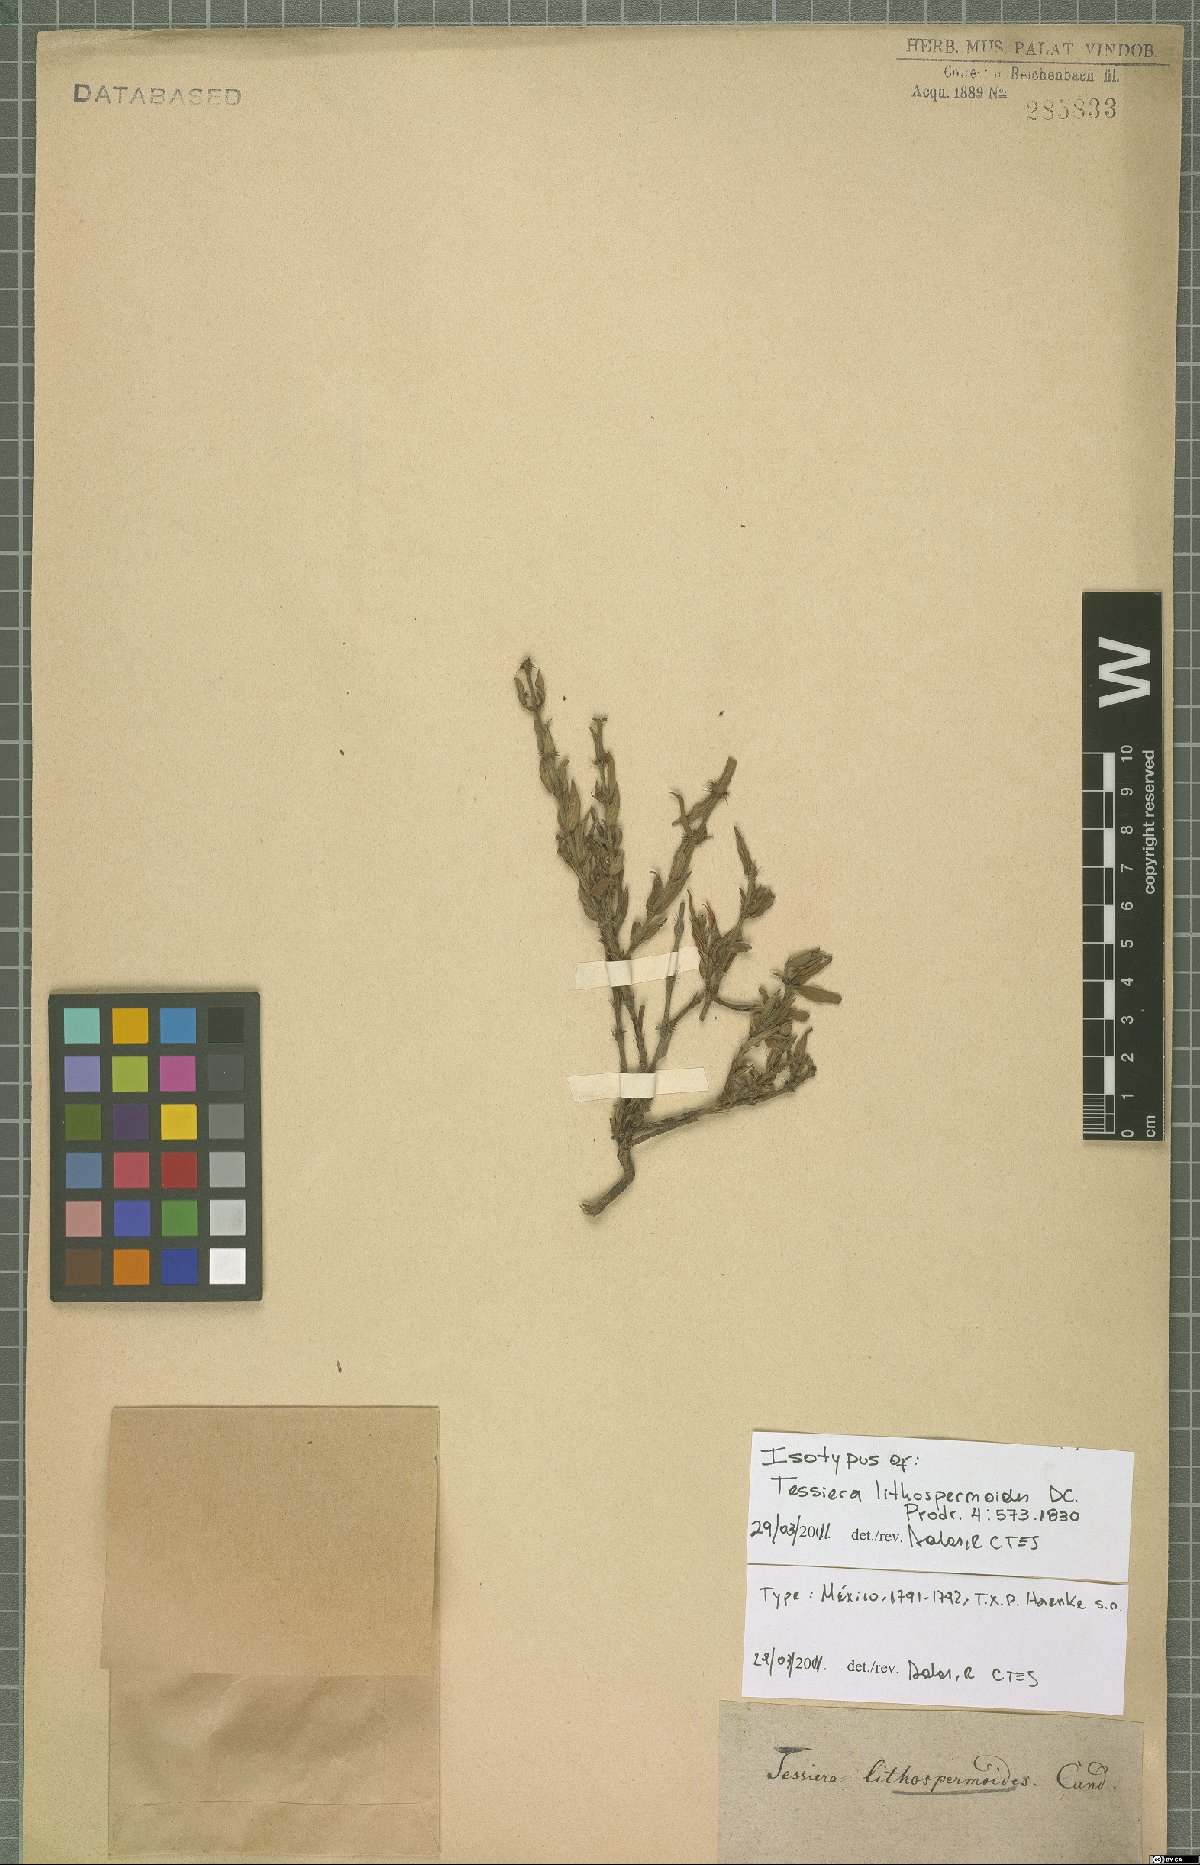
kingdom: Plantae
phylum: Tracheophyta
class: Magnoliopsida
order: Gentianales
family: Rubiaceae
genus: Tessiera
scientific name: Tessiera lithospermoides
